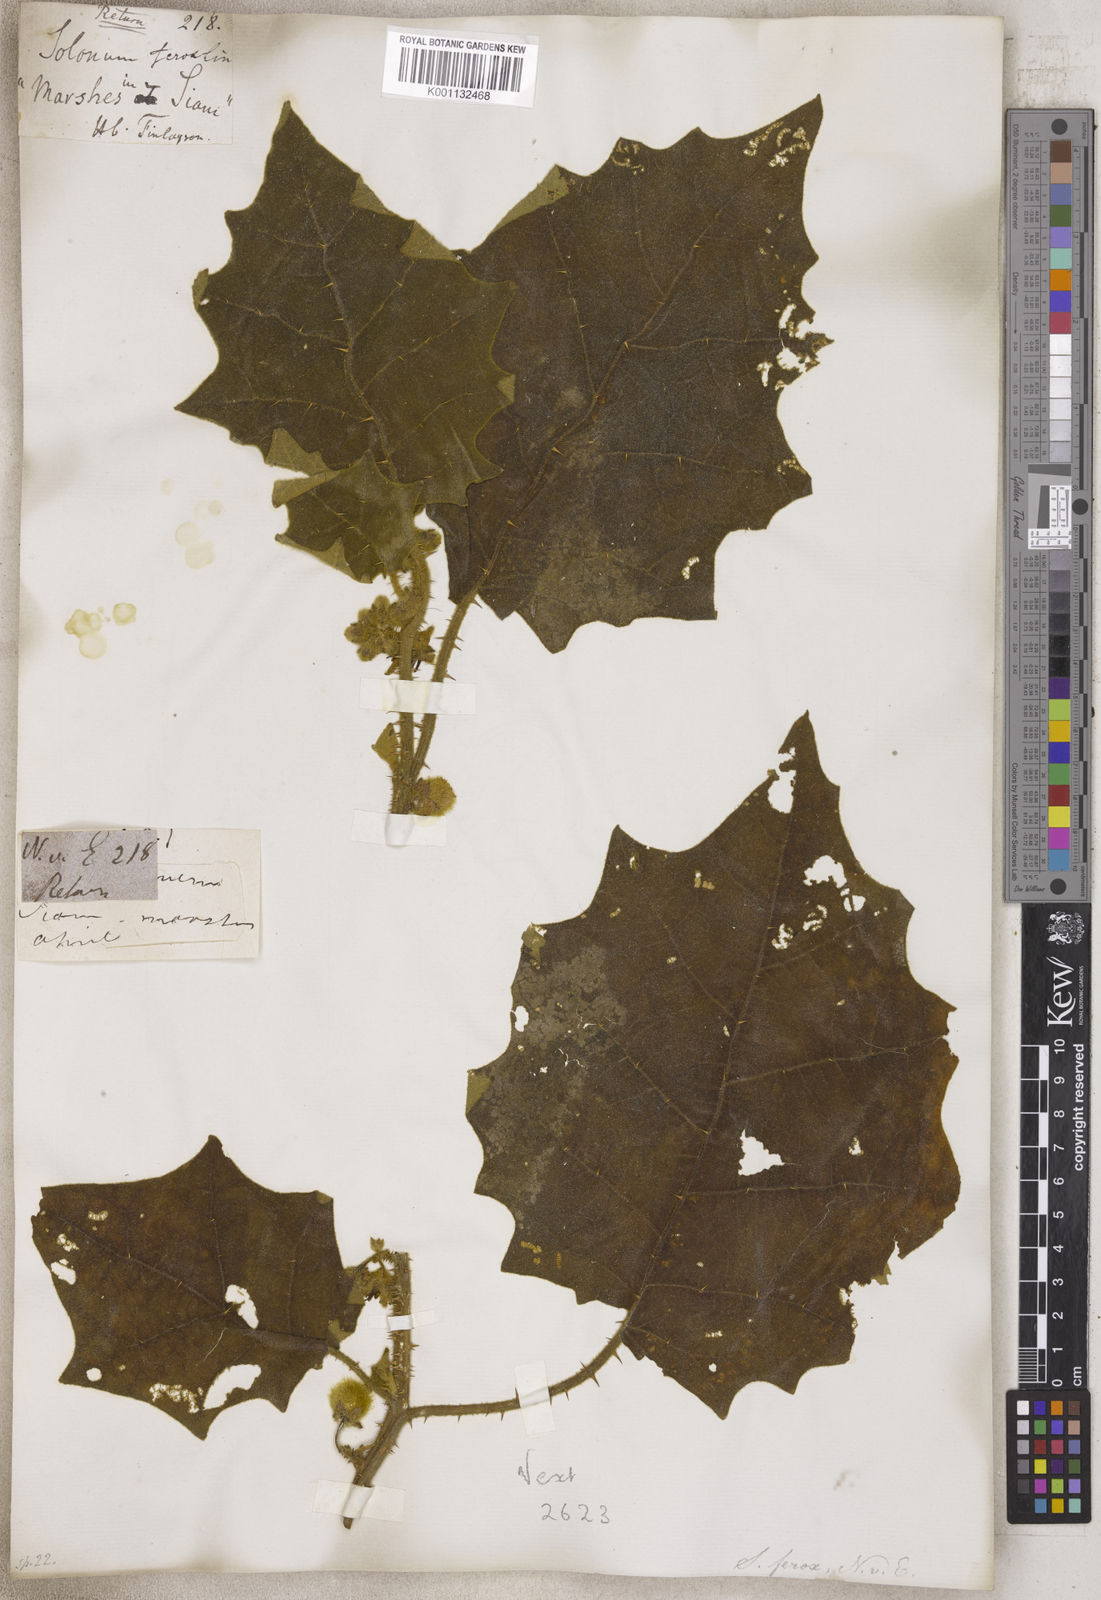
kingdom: Plantae
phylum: Tracheophyta
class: Magnoliopsida
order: Solanales
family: Solanaceae
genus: Solanum
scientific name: Solanum
